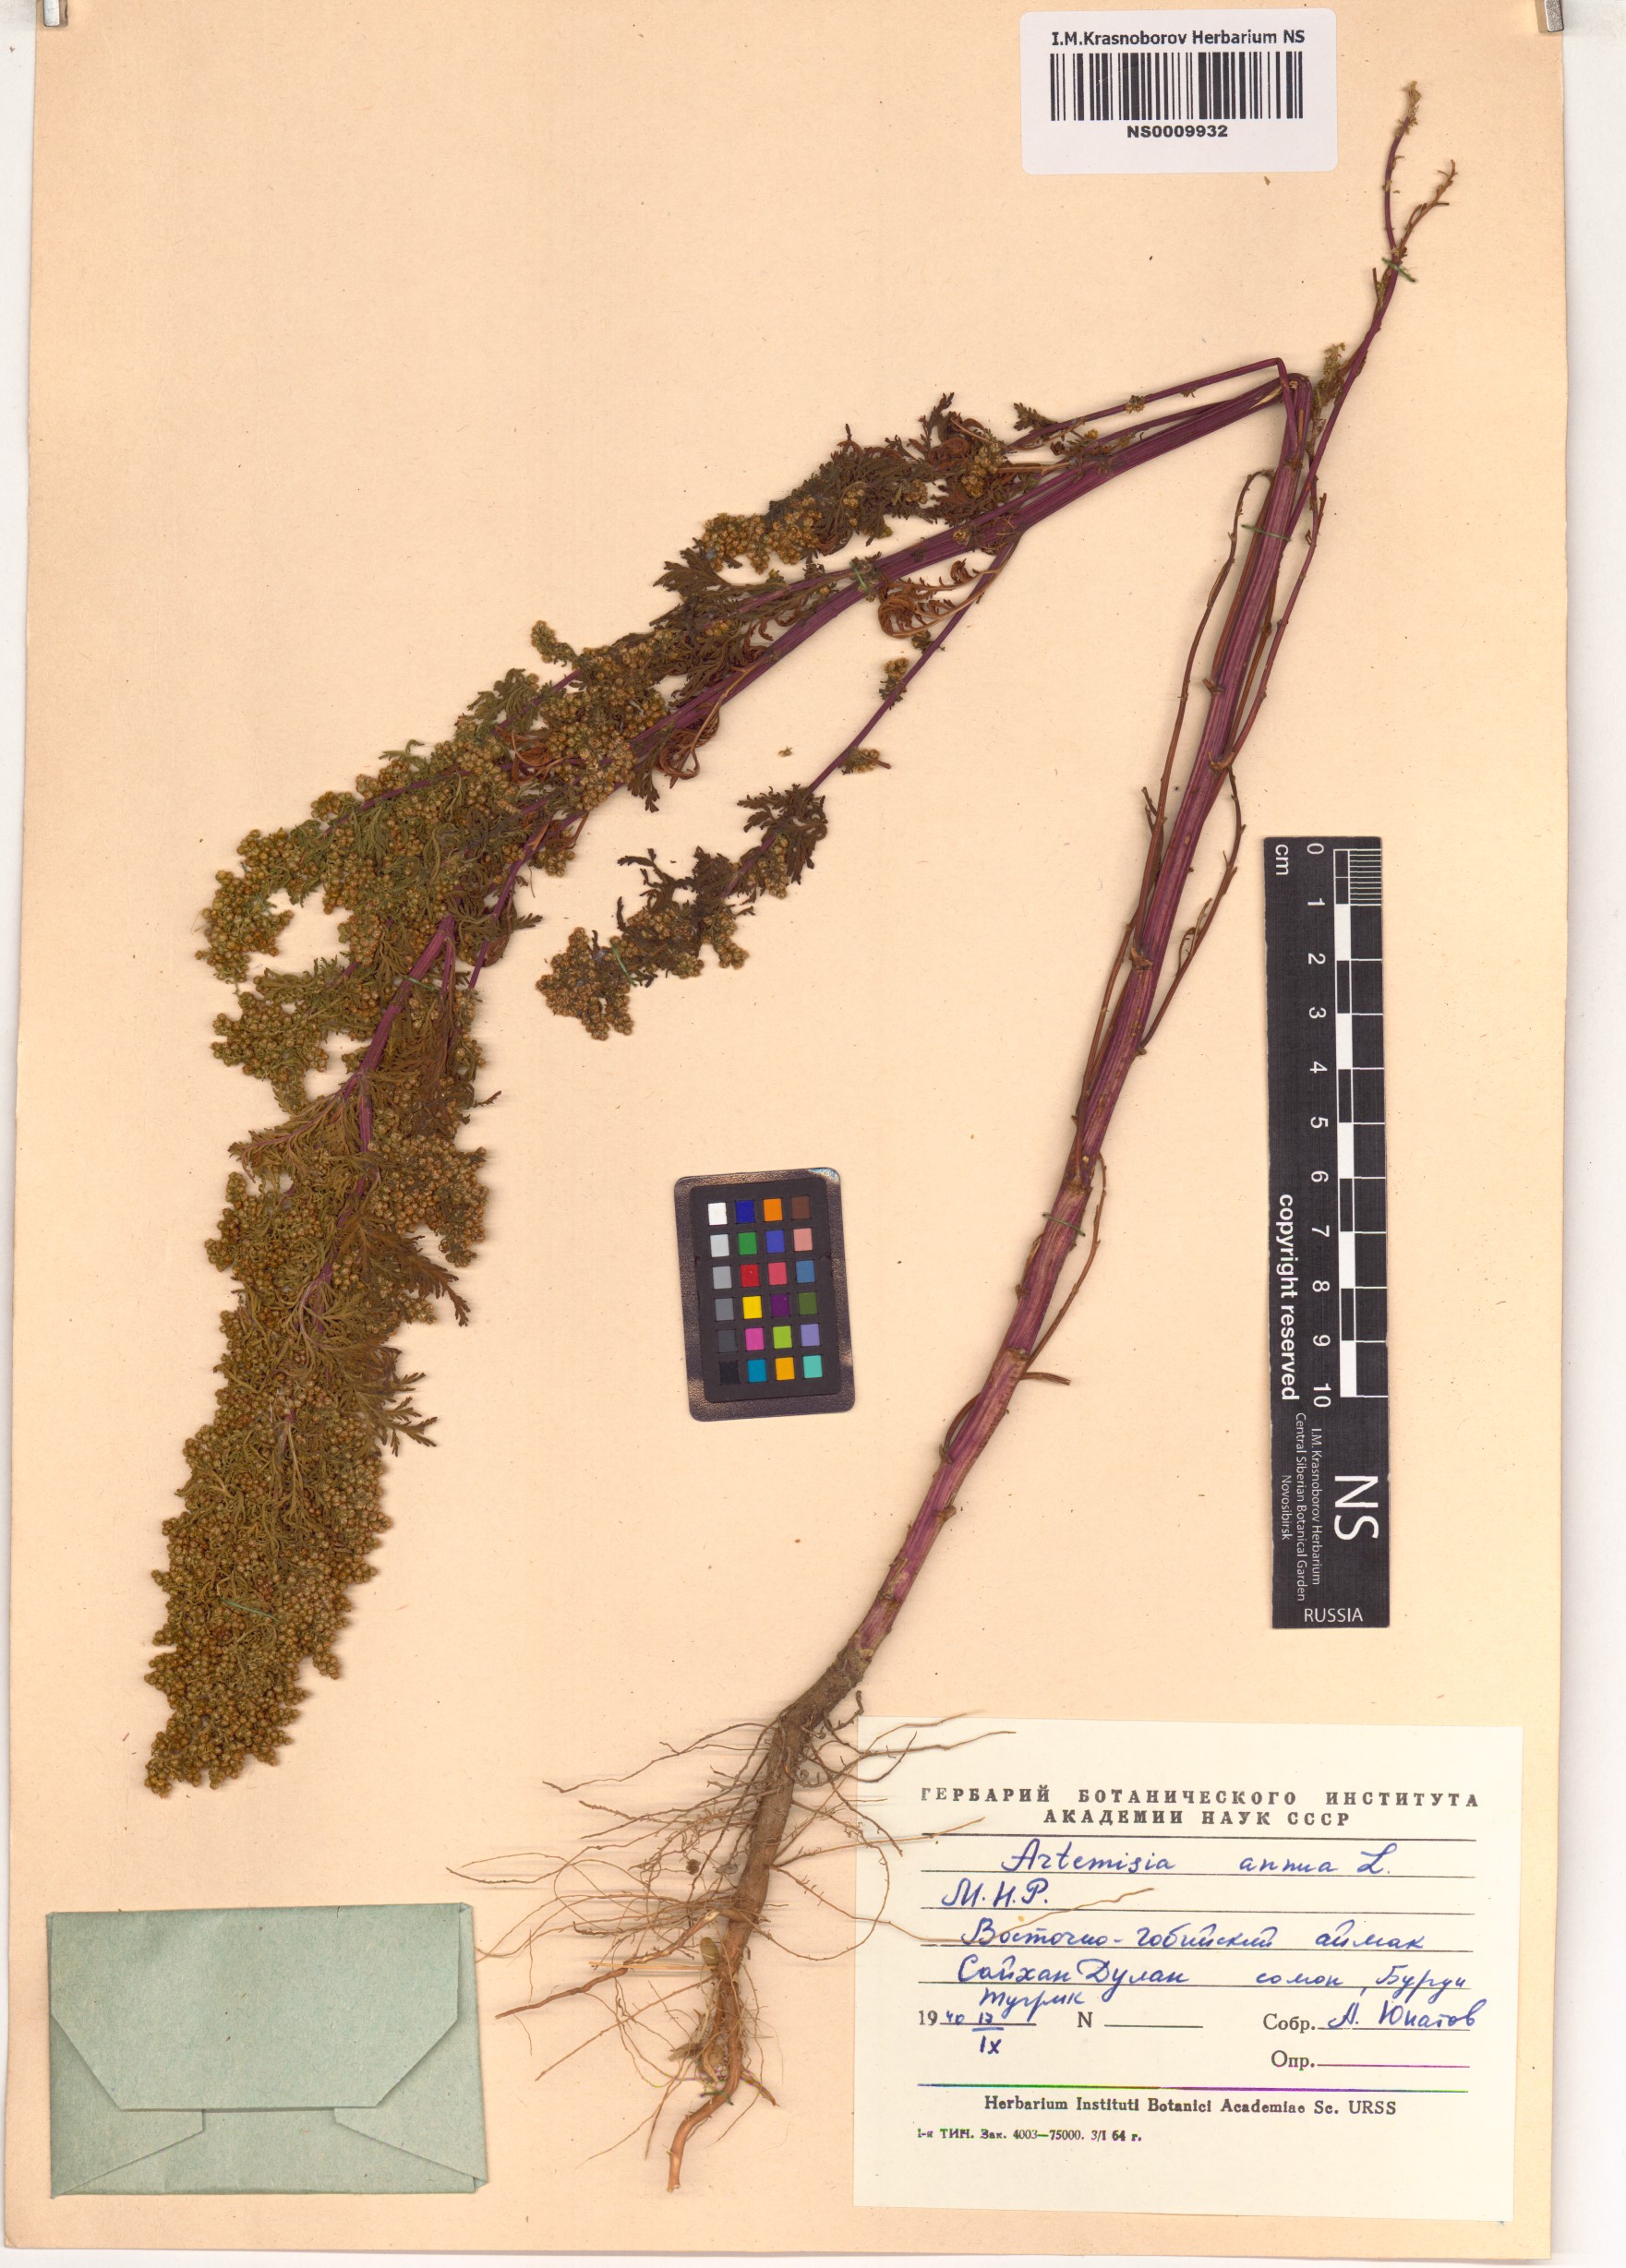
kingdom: Plantae
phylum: Tracheophyta
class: Magnoliopsida
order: Asterales
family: Asteraceae
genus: Artemisia
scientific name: Artemisia annua
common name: Sweet sagewort
